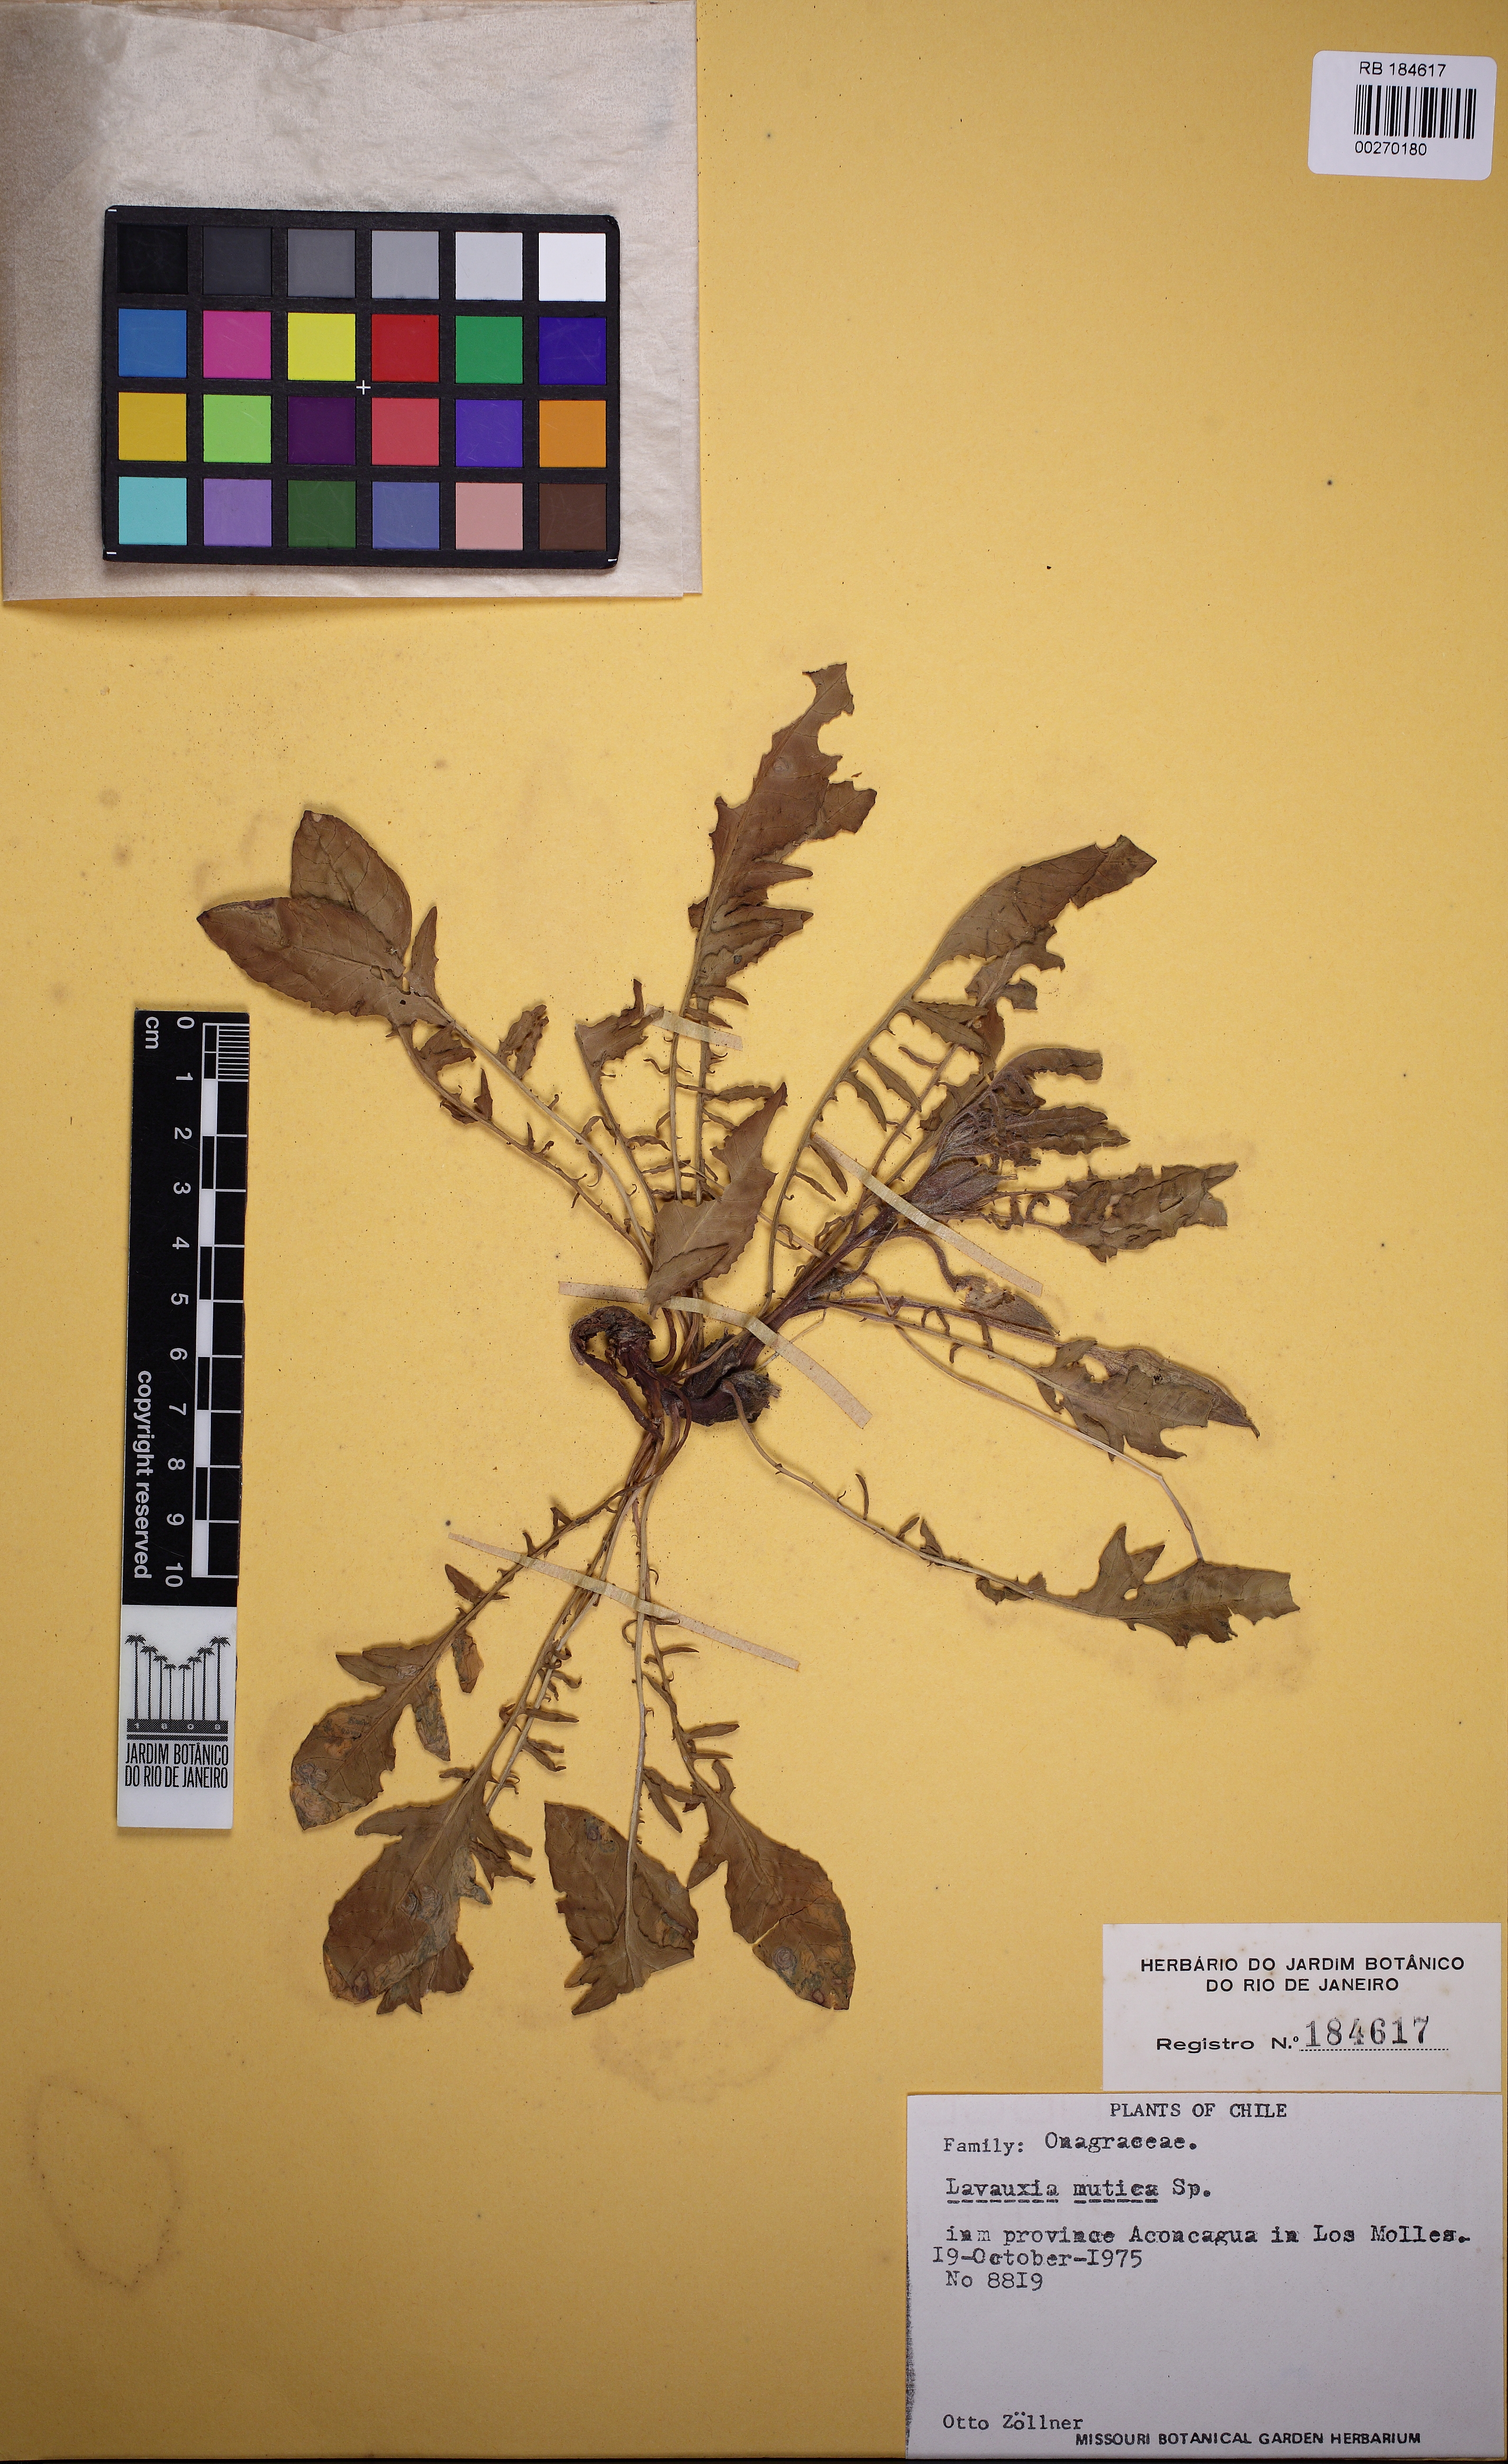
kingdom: Plantae
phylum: Tracheophyta
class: Magnoliopsida
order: Myrtales
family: Onagraceae
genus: Oenothera
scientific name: Oenothera acaulis
